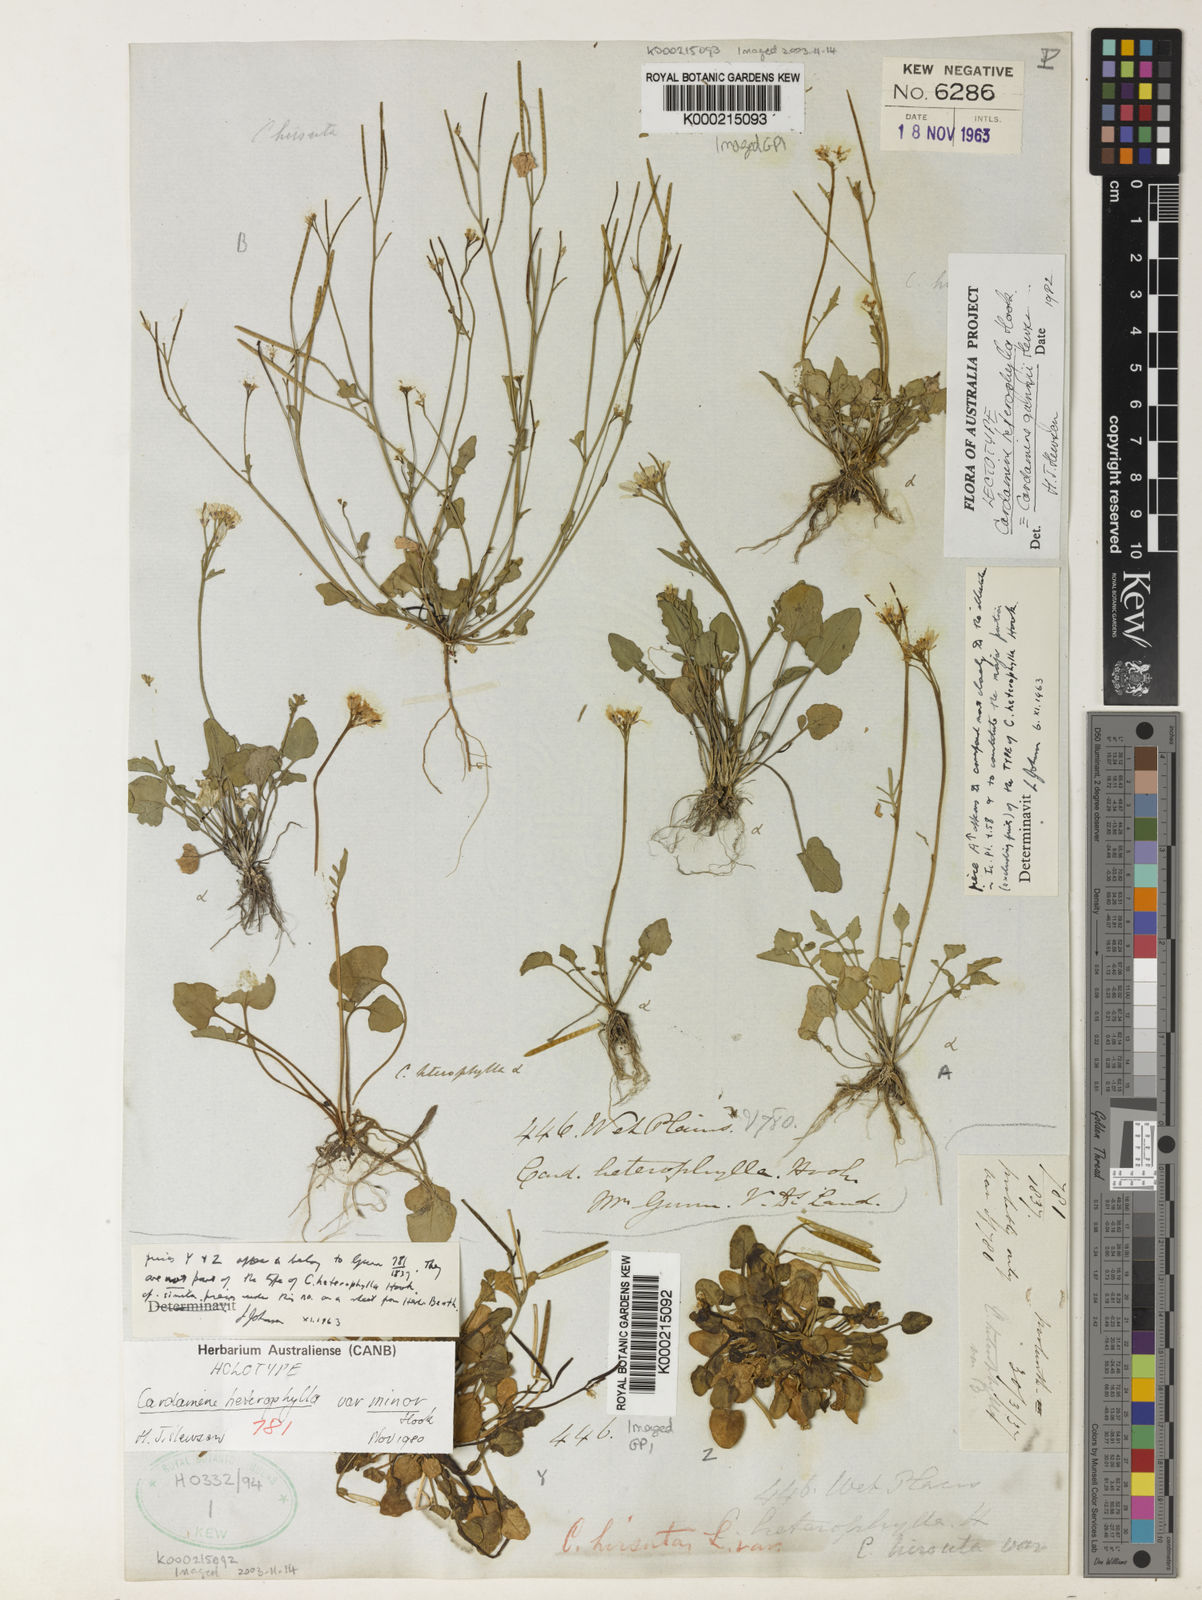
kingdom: Plantae
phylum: Tracheophyta
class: Magnoliopsida
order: Brassicales
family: Brassicaceae
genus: Cardamine
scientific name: Cardamine gunnii
